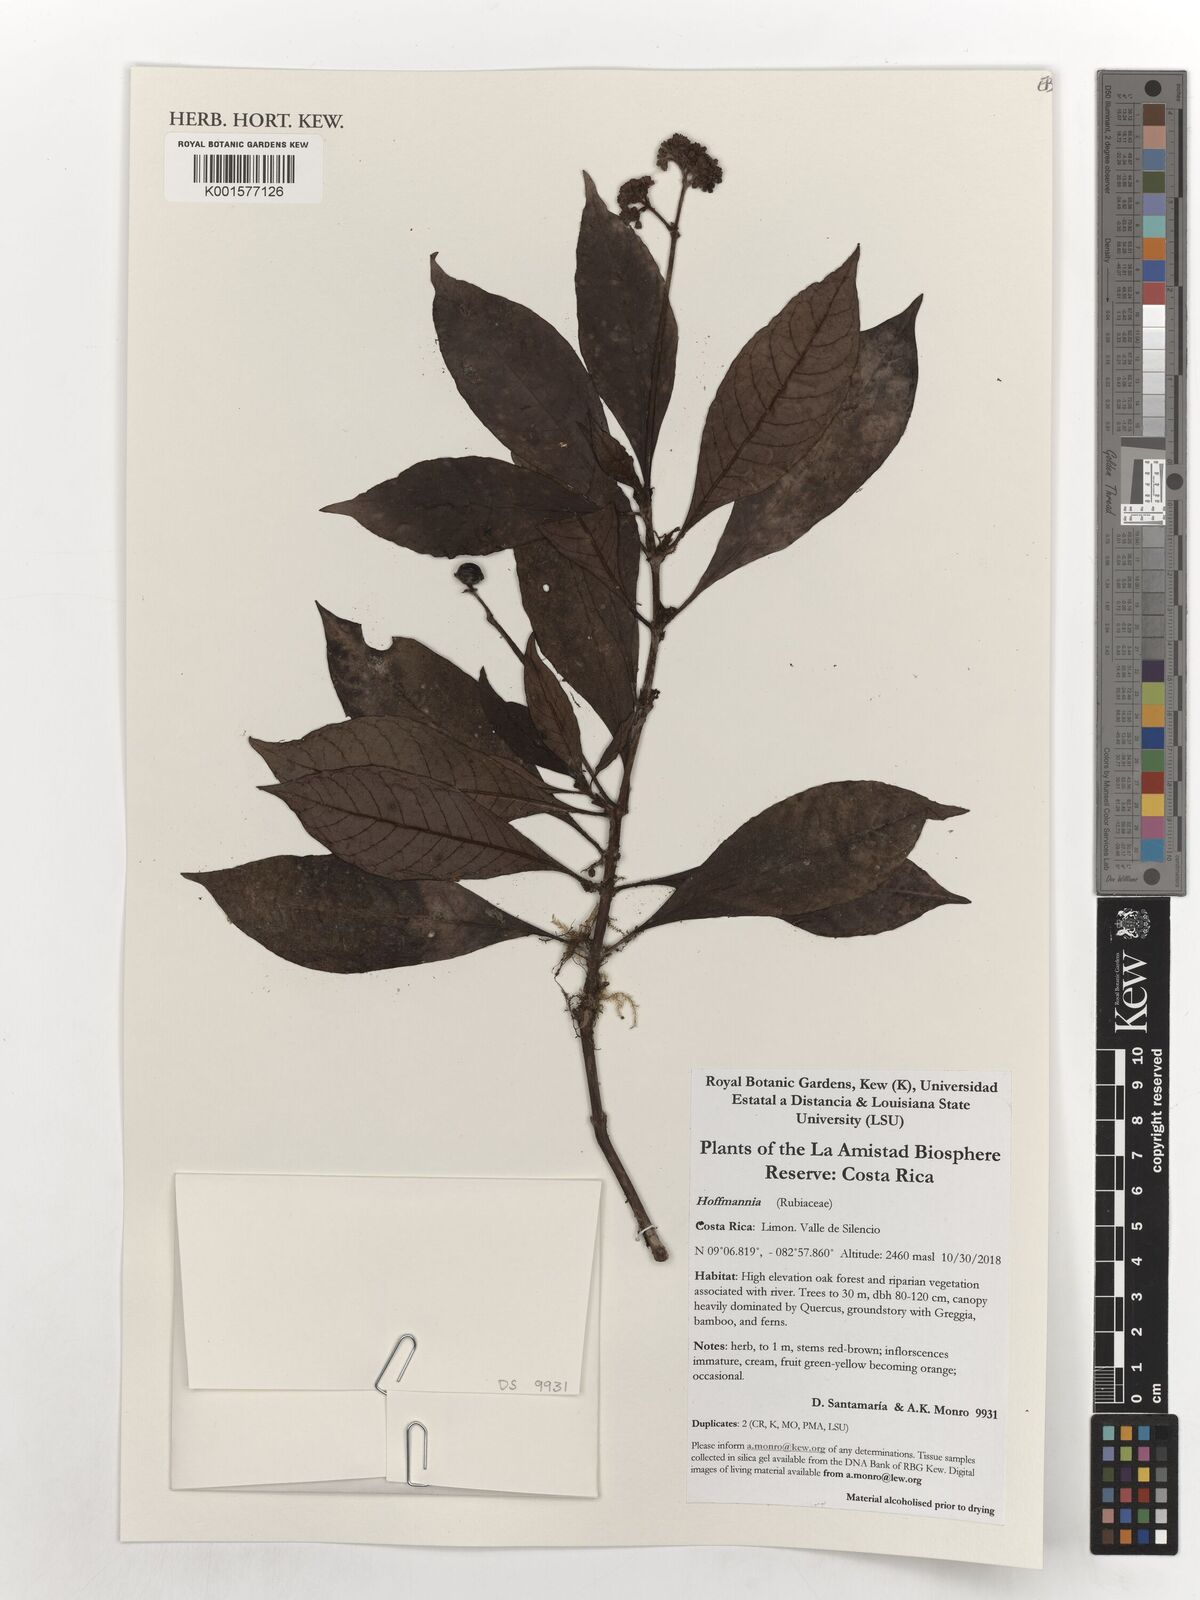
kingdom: Plantae
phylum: Tracheophyta
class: Magnoliopsida
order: Gentianales
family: Rubiaceae
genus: Hoffmannia
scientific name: Hoffmannia
